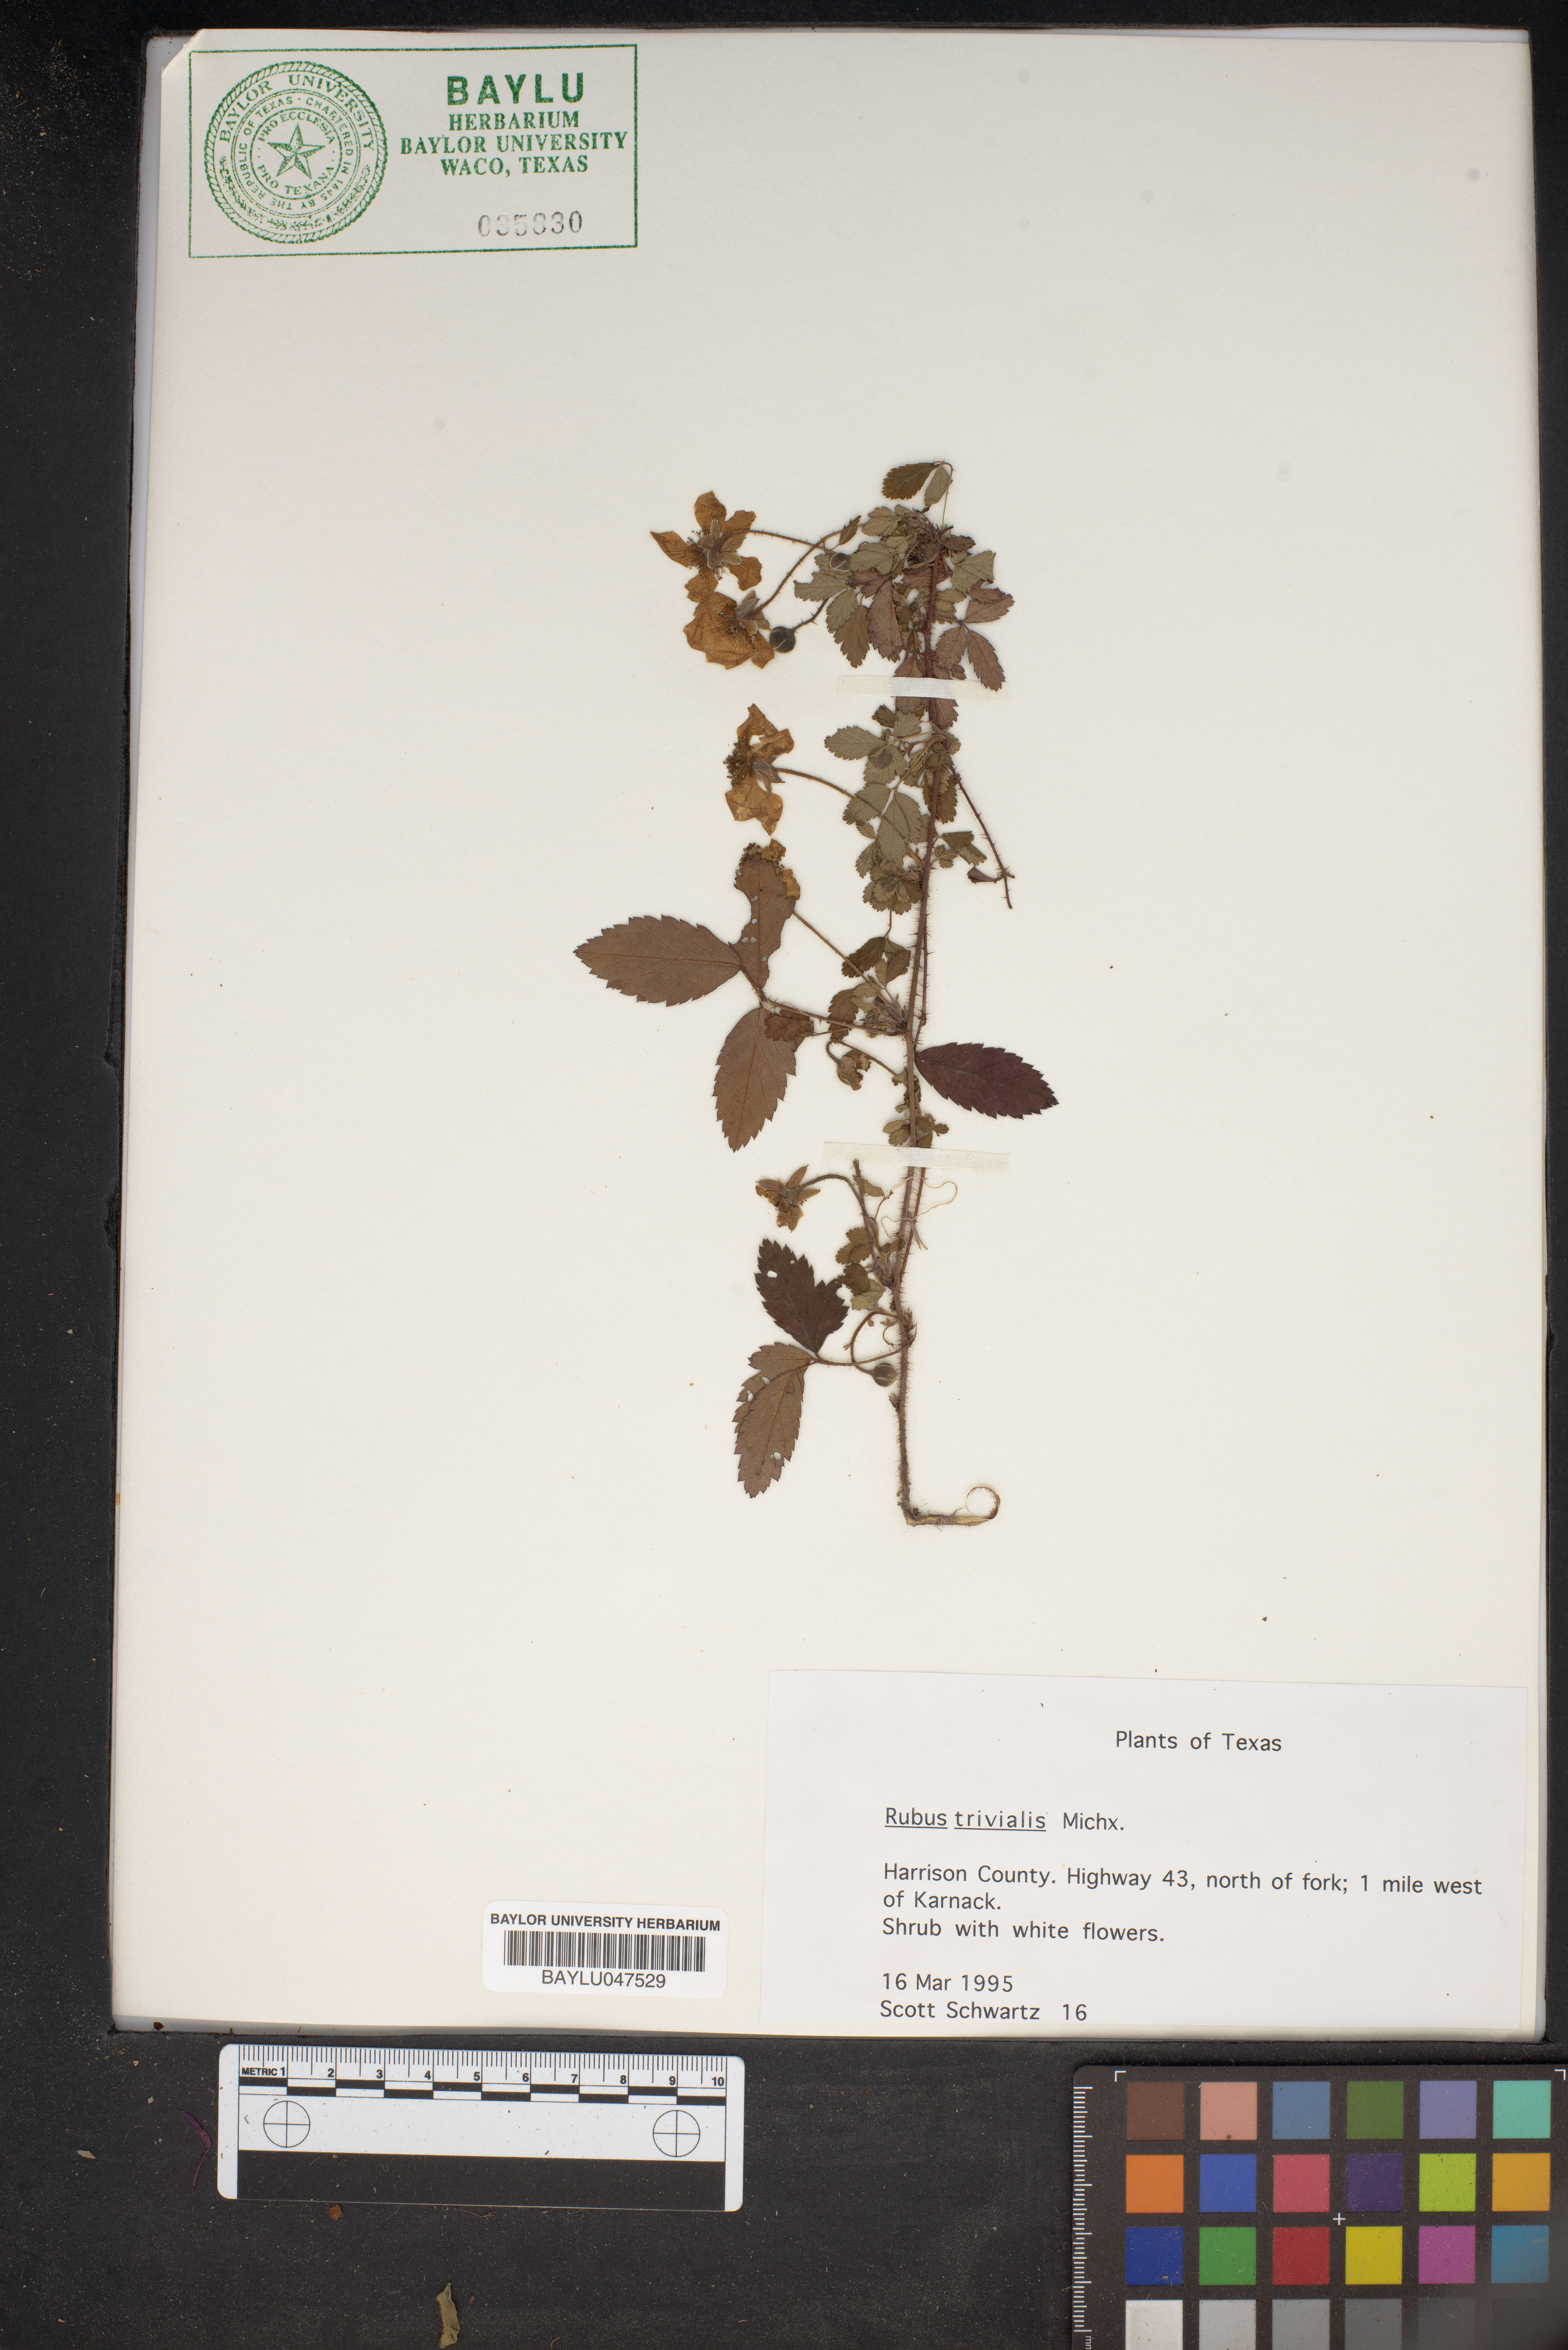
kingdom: Plantae
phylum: Tracheophyta
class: Magnoliopsida
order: Rosales
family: Rosaceae
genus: Rubus
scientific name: Rubus trivialis
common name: Southern dewberry
